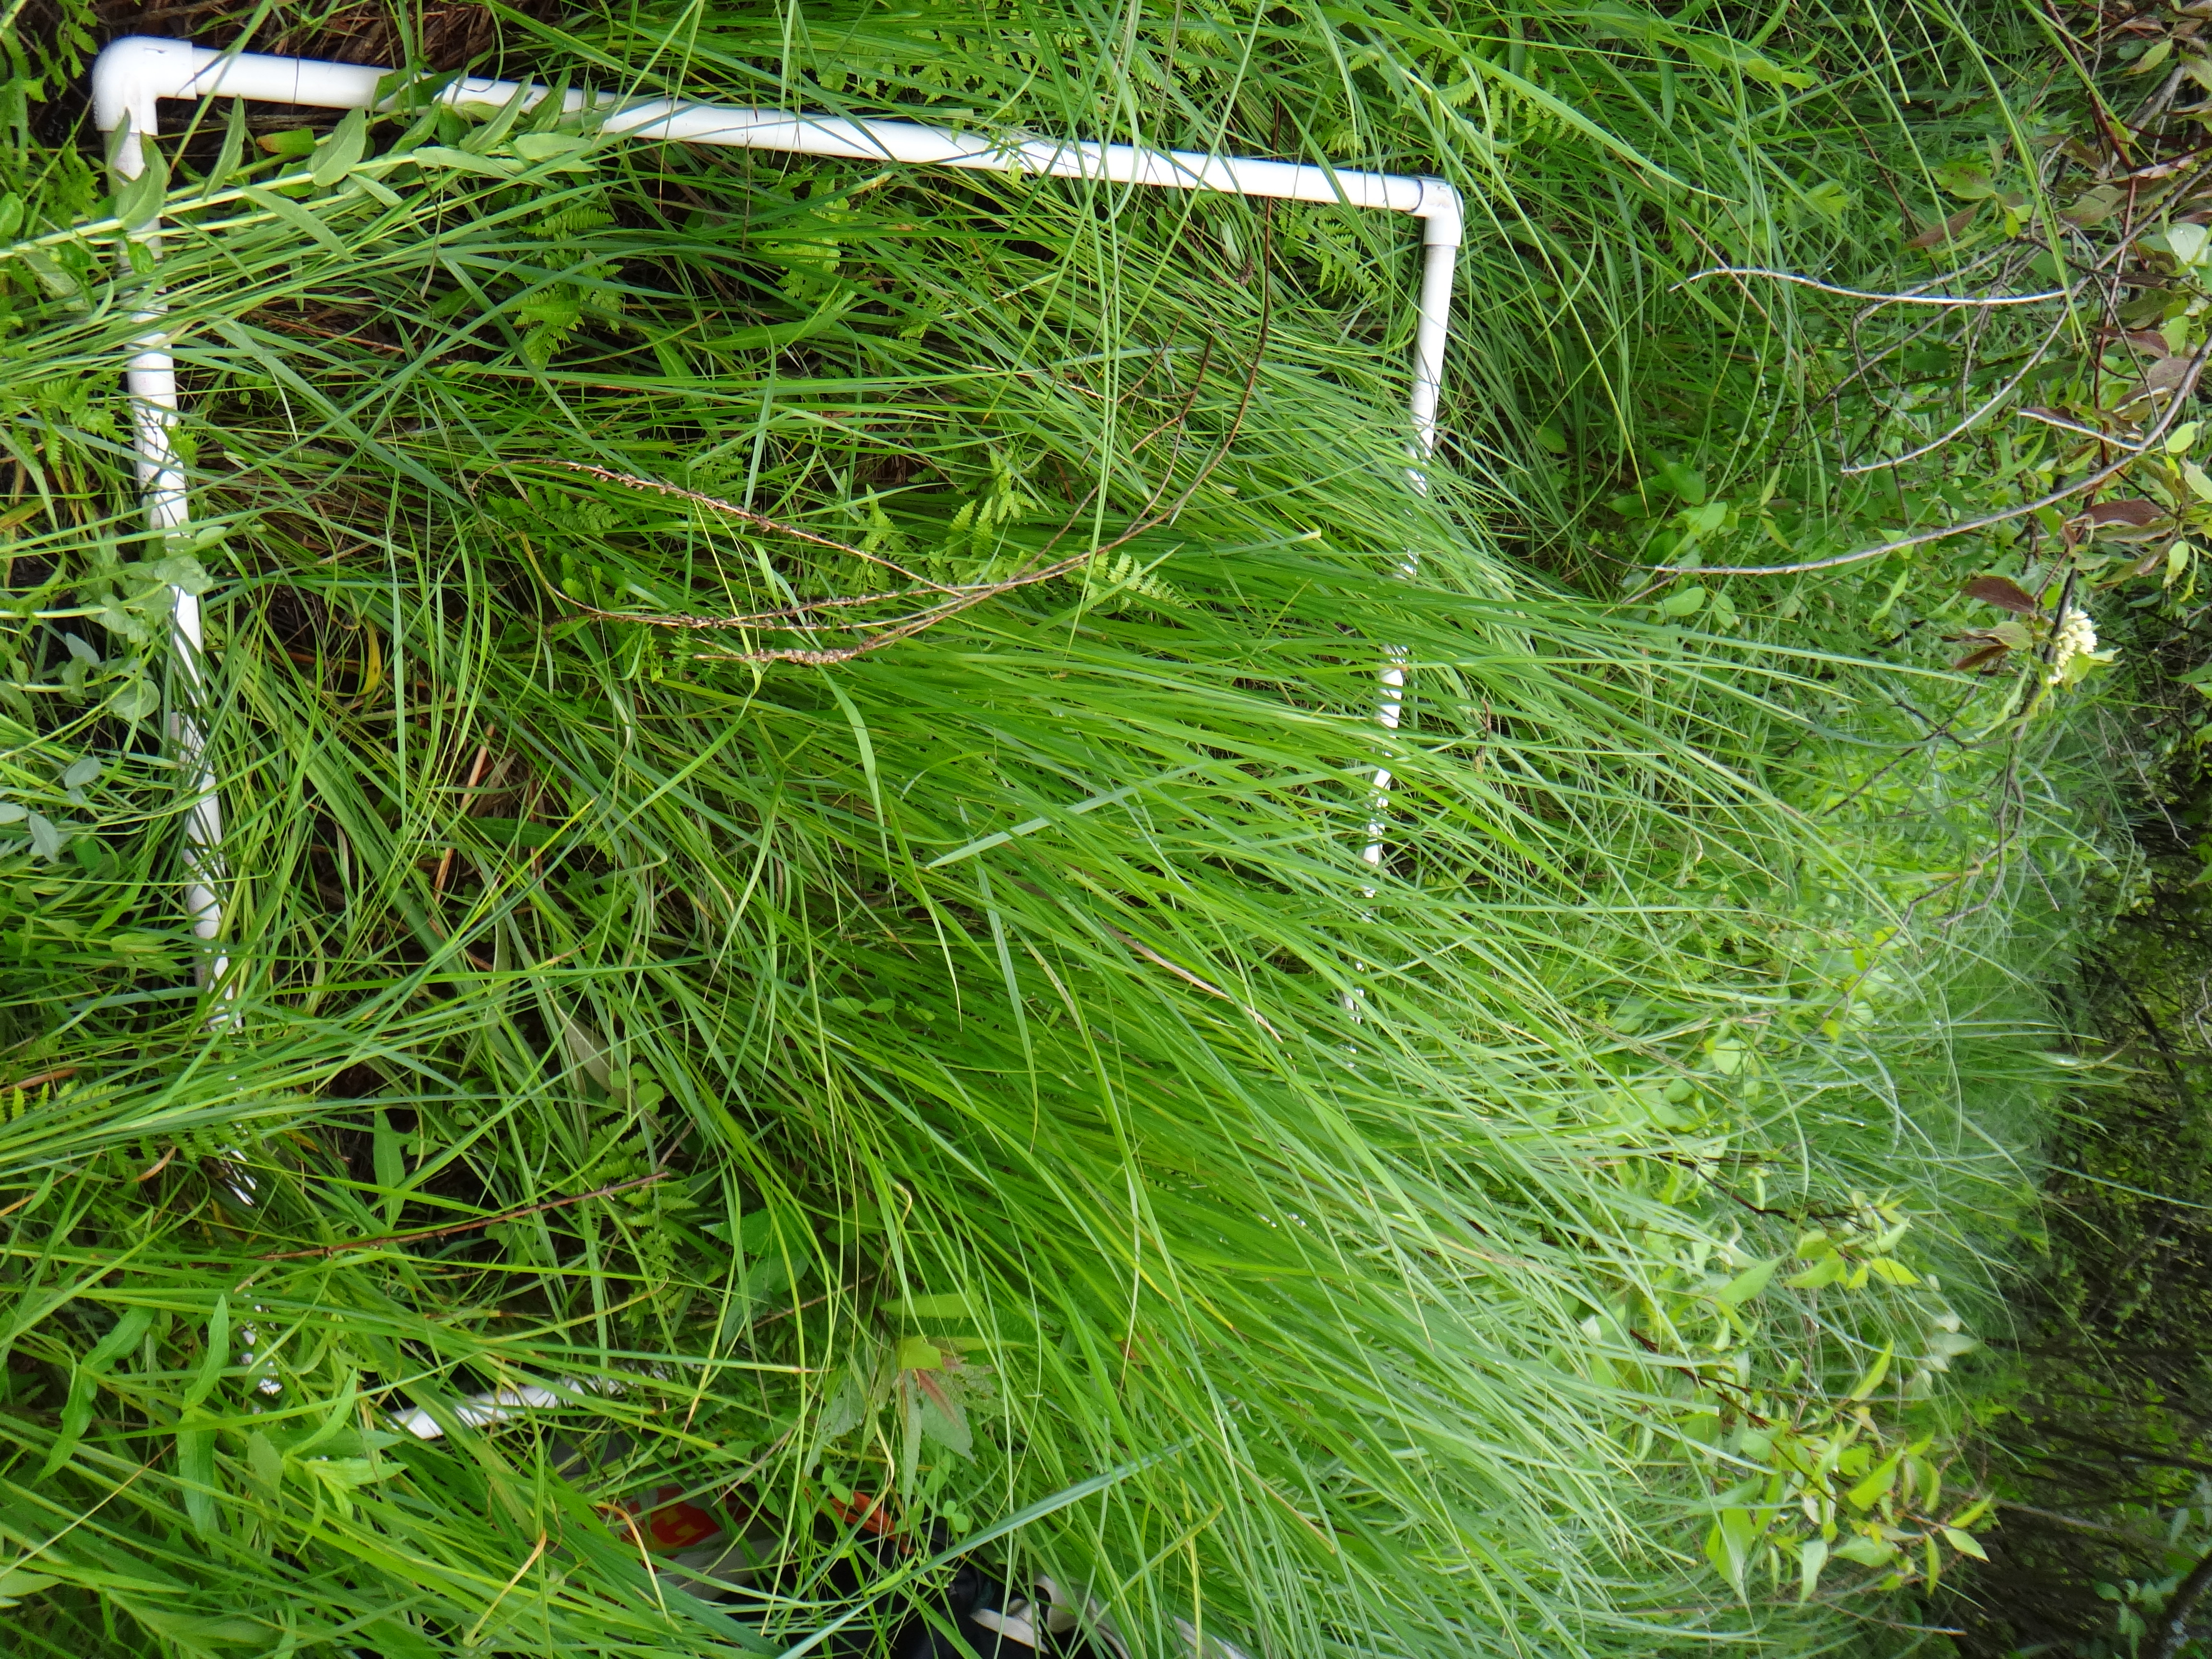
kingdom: Plantae
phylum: Tracheophyta
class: Magnoliopsida
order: Rosales
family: Rosaceae
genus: Dasiphora
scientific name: Dasiphora fruticosa
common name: Shrubby cinquefoil
